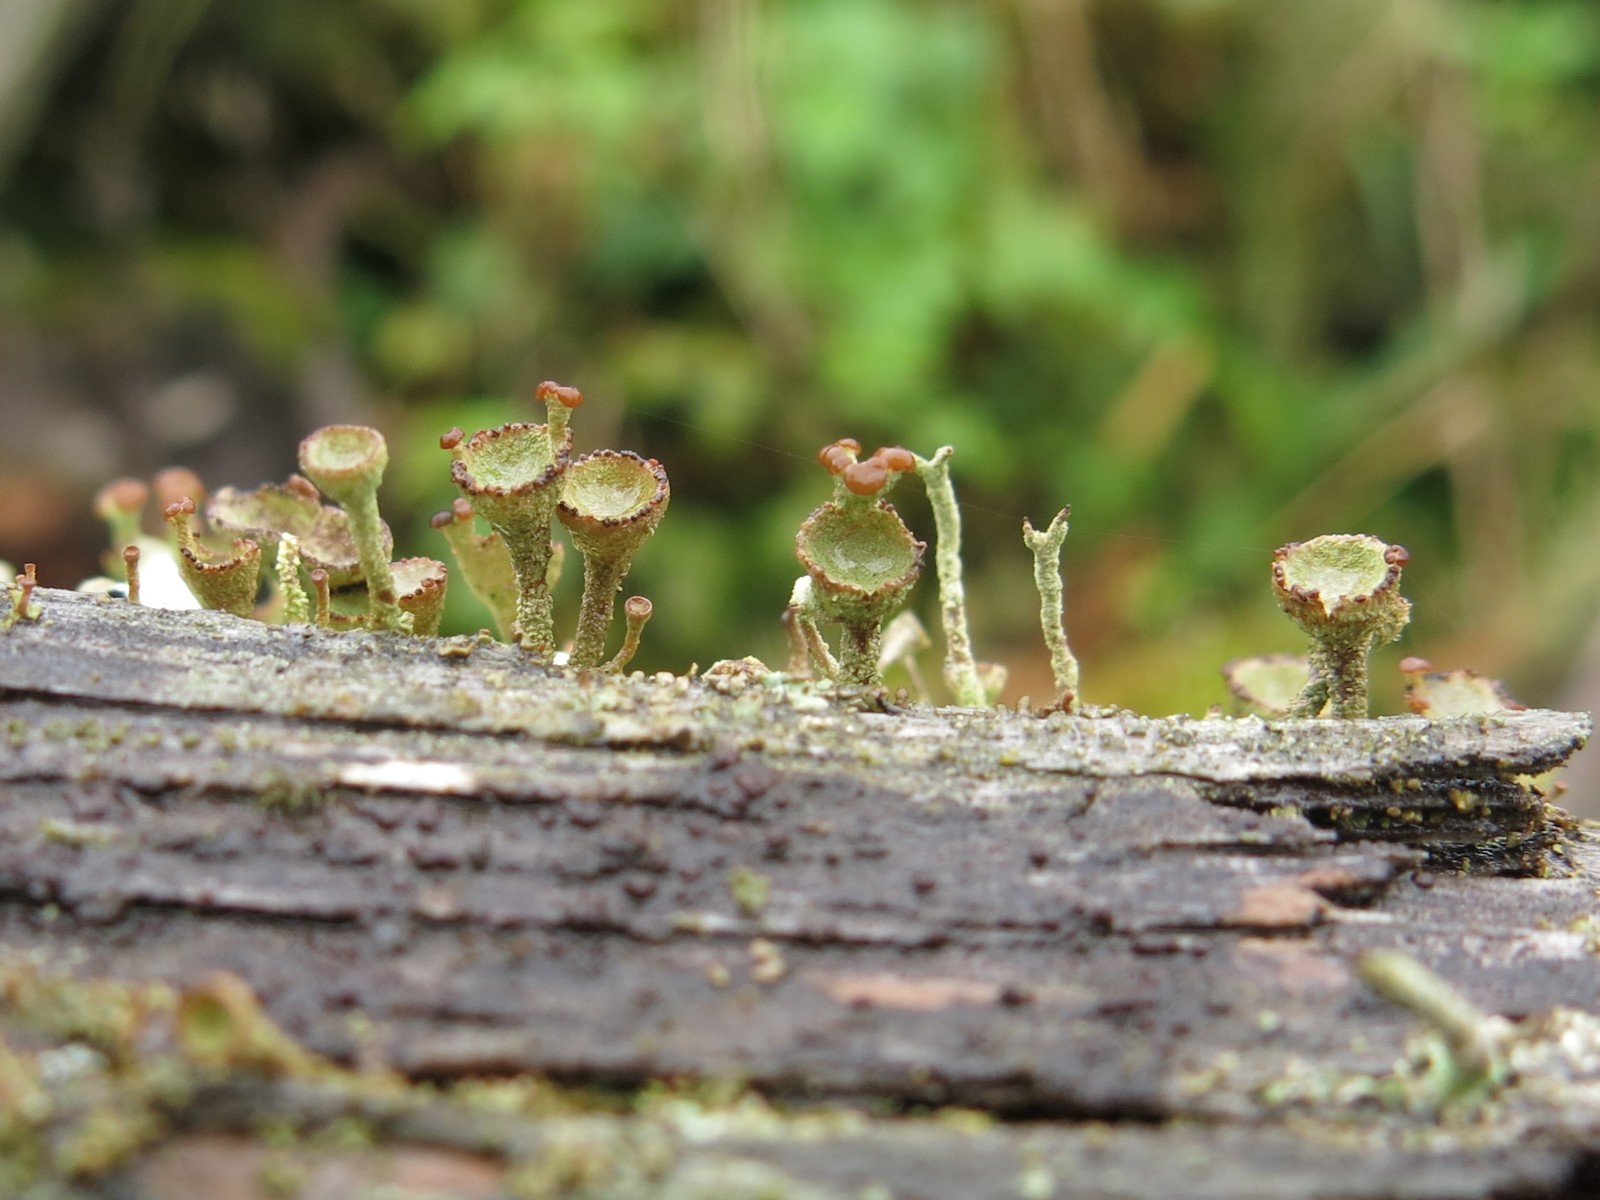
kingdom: Fungi
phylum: Ascomycota
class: Lecanoromycetes
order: Lecanorales
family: Cladoniaceae
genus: Cladonia
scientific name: Cladonia
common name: brungrøn bægerlav
